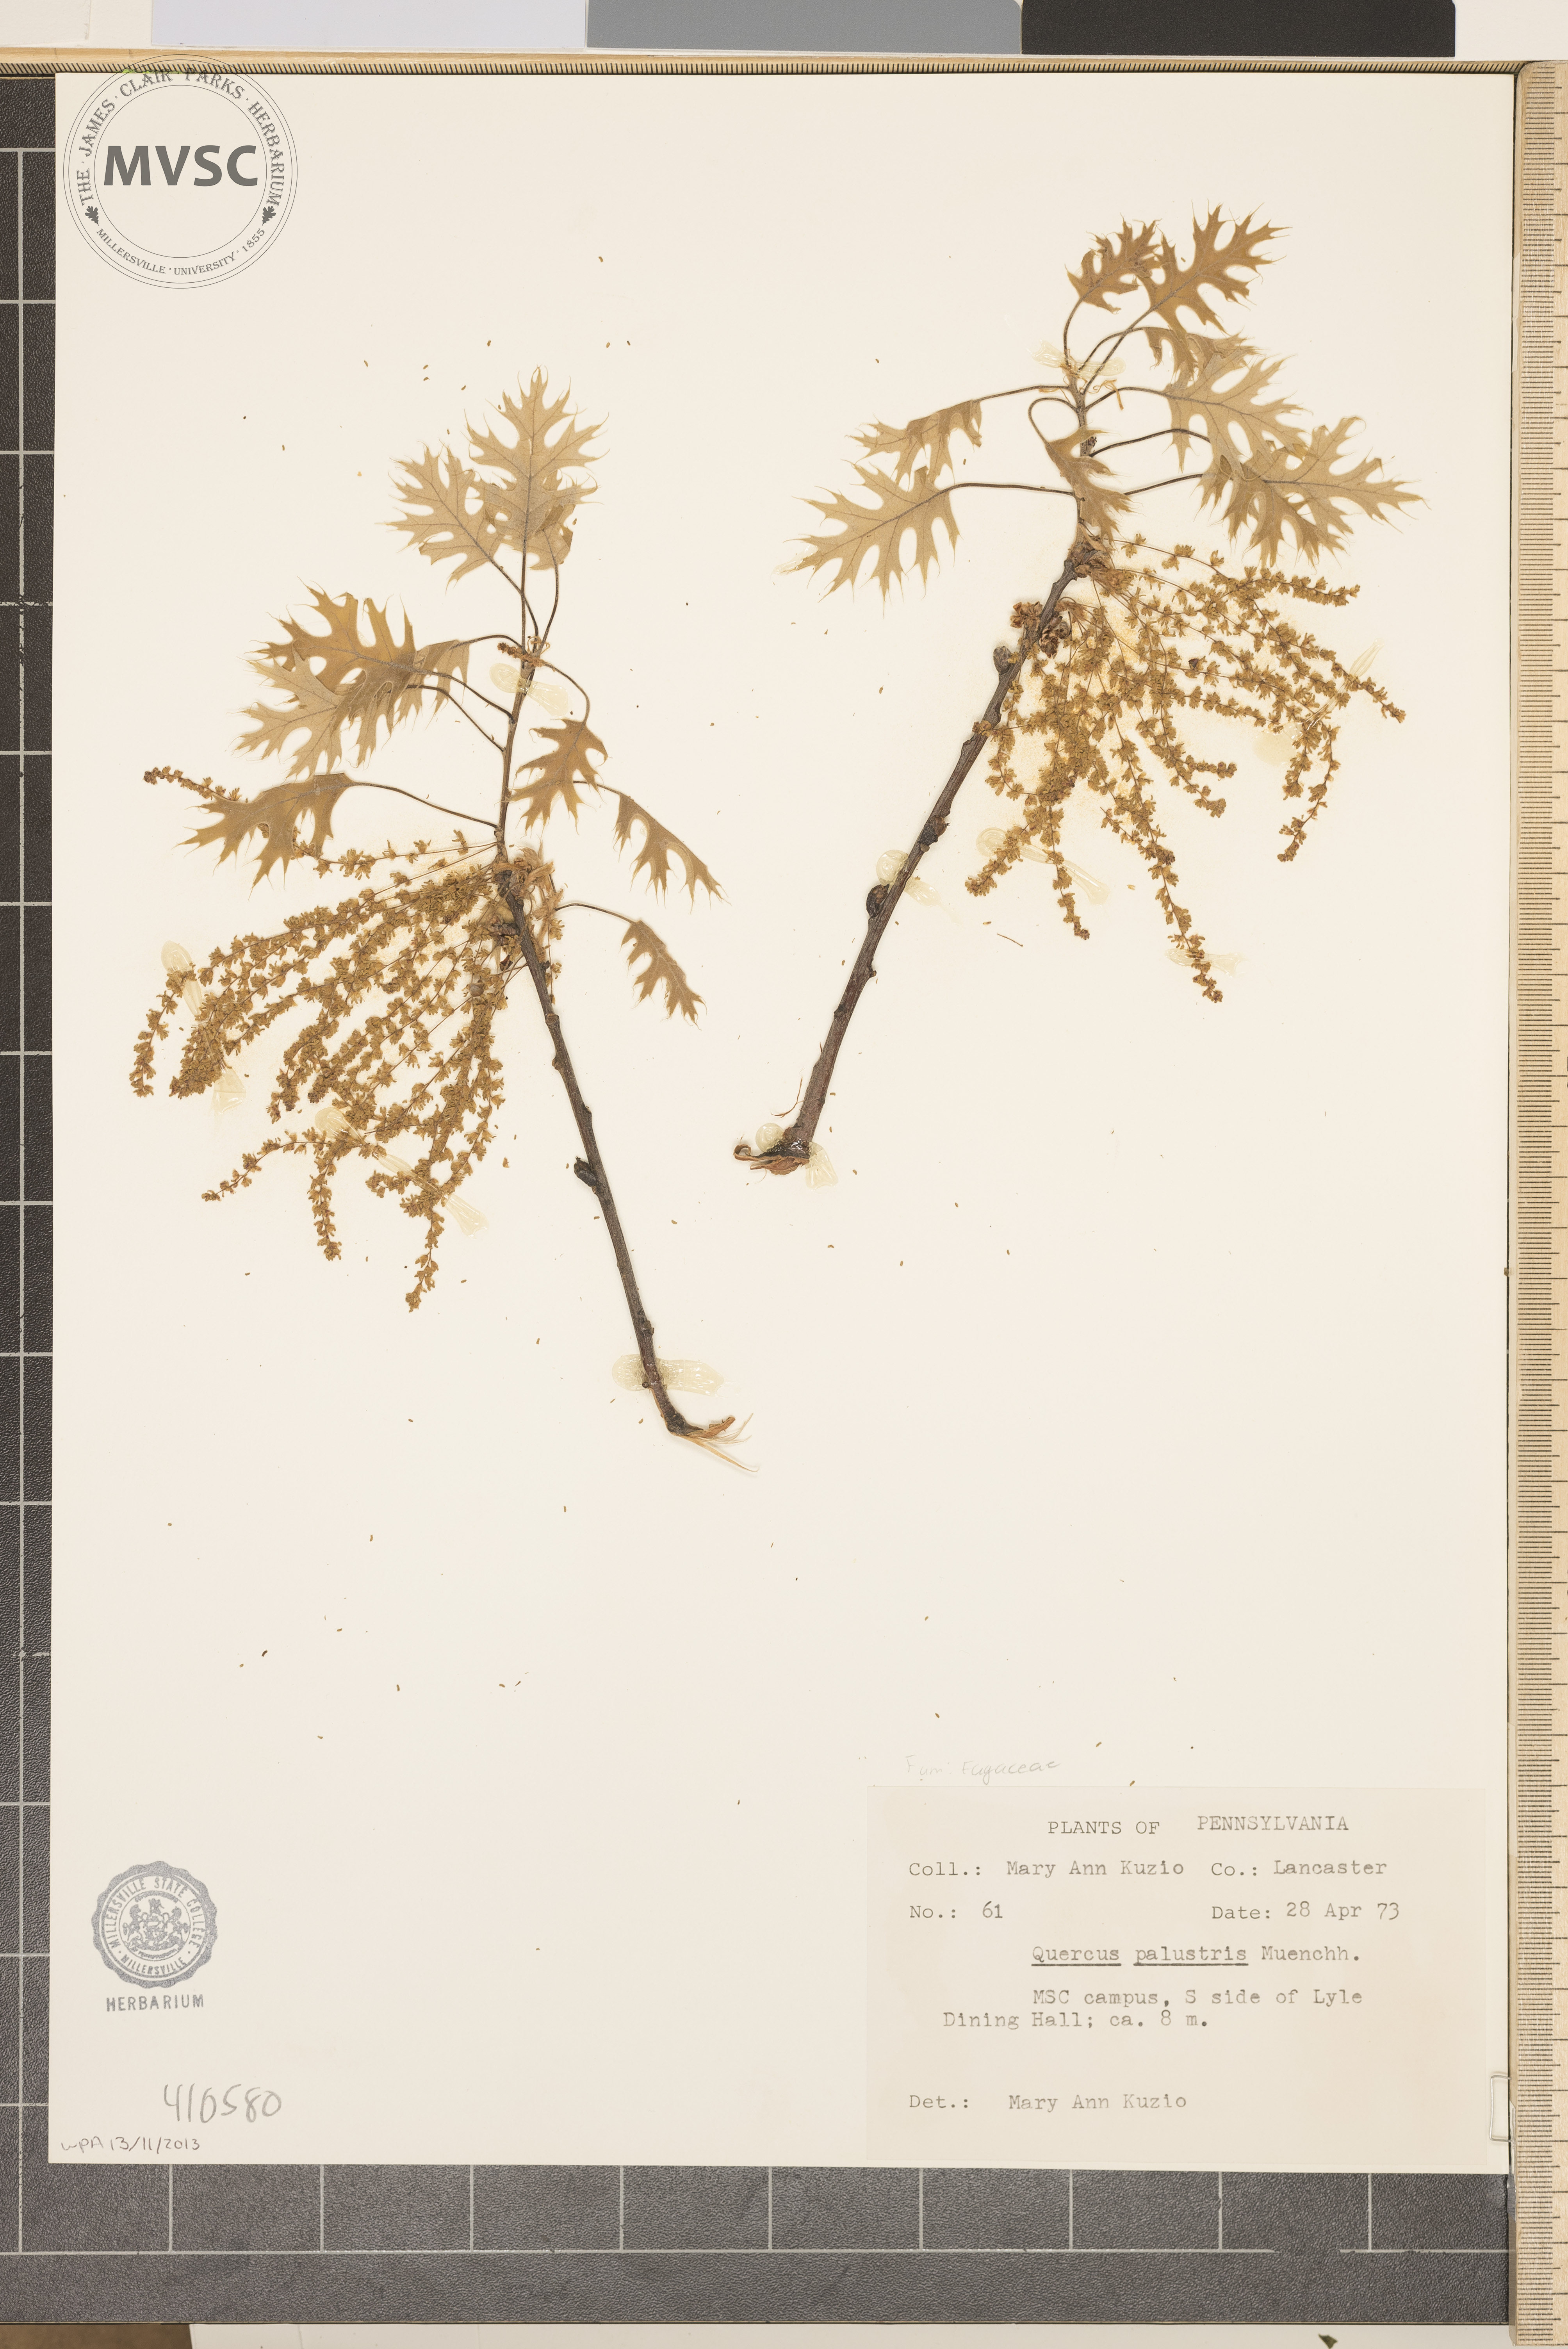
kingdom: Plantae
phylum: Tracheophyta
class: Magnoliopsida
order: Fagales
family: Fagaceae
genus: Quercus
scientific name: Quercus palustris
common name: Pin oak
